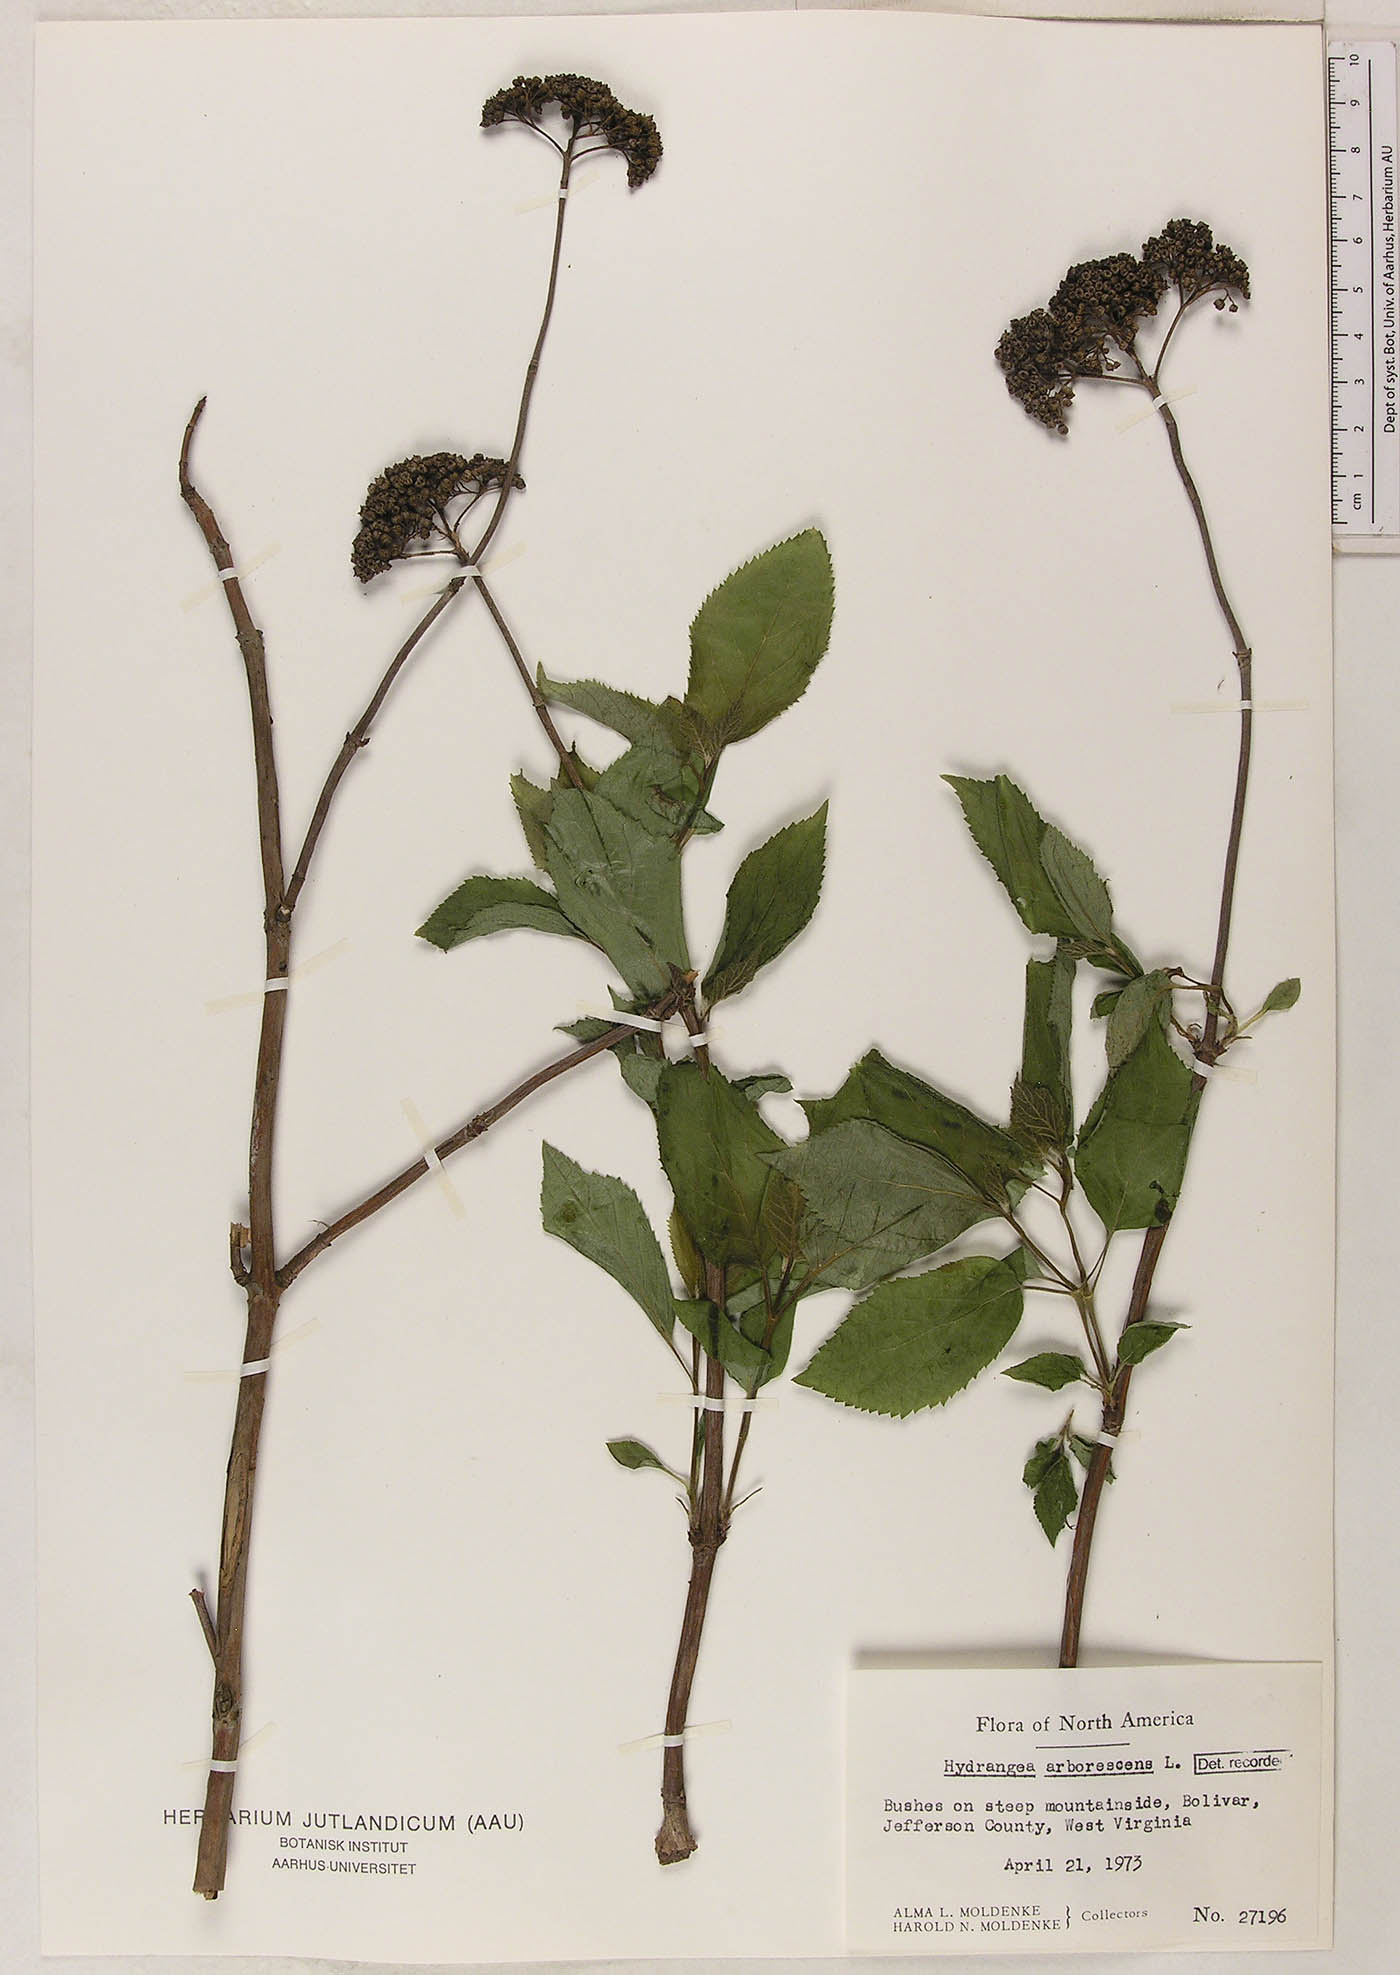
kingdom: Plantae
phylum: Tracheophyta
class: Magnoliopsida
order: Cornales
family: Hydrangeaceae
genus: Hydrangea
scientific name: Hydrangea arborescens
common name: Sevenbark
